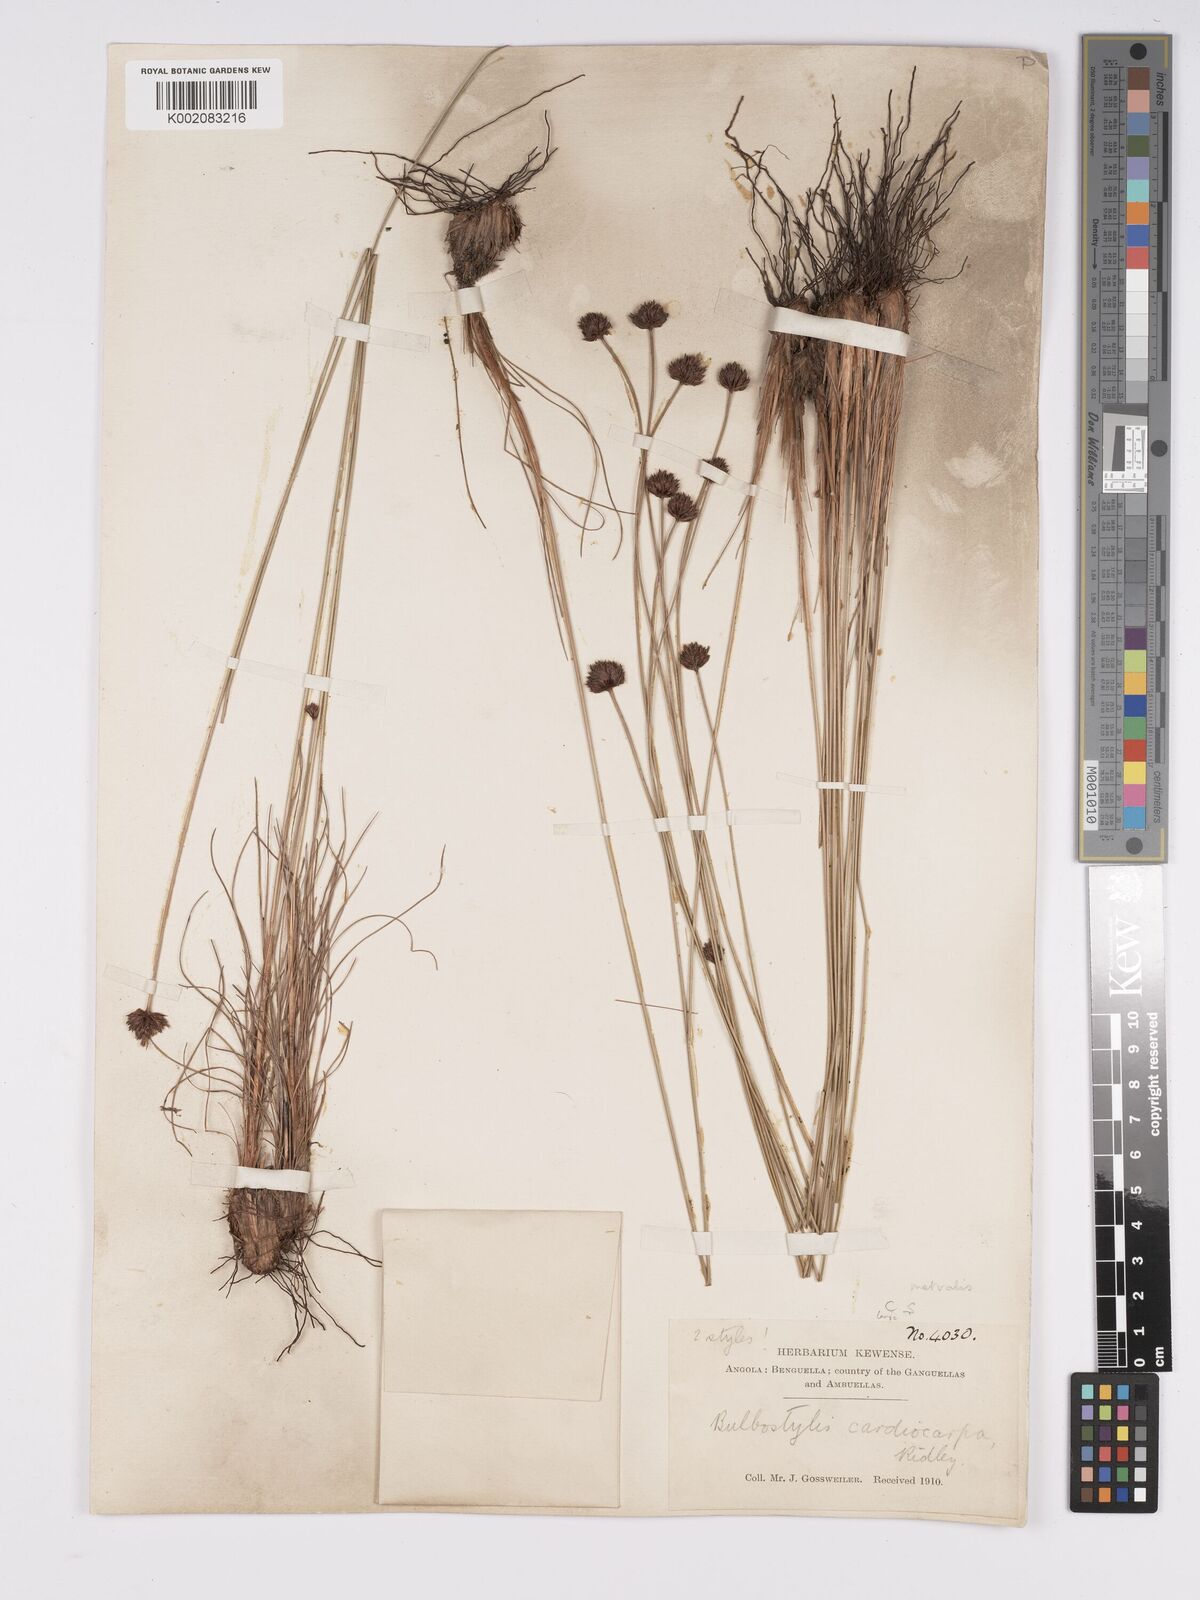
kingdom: Plantae
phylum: Tracheophyta
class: Liliopsida
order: Poales
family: Cyperaceae
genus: Bulbostylis
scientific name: Bulbostylis filamentosa
